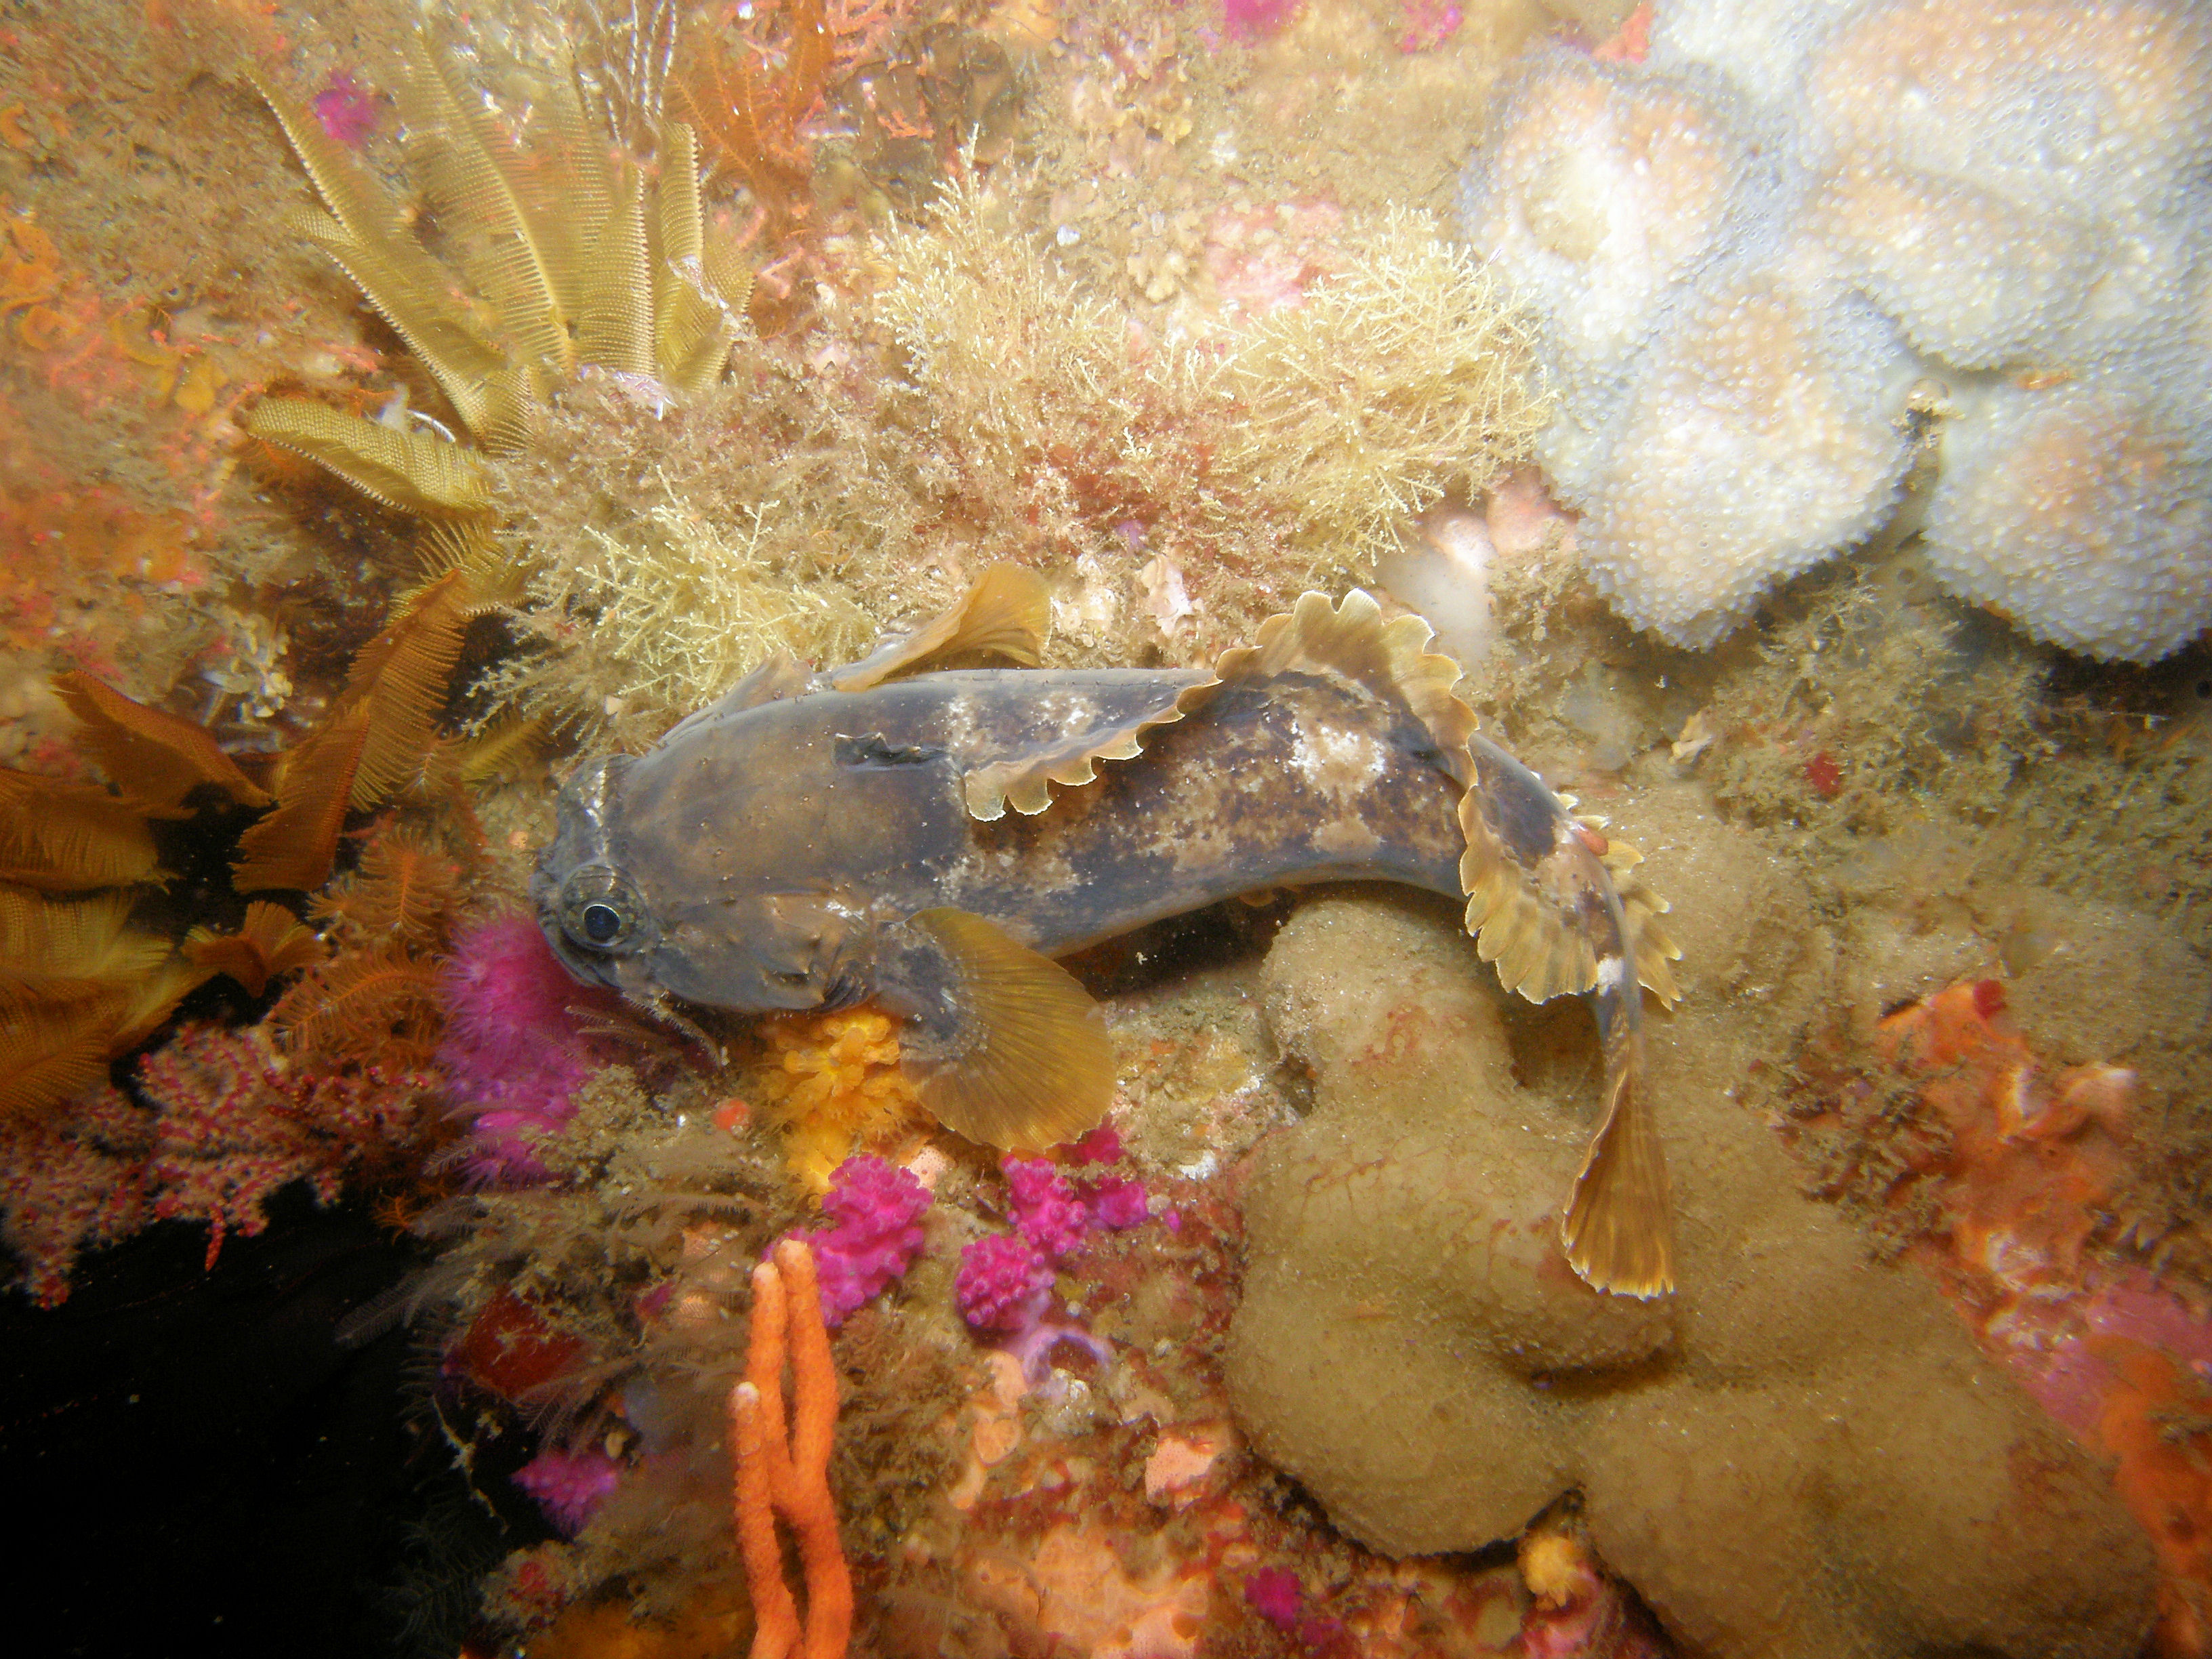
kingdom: Animalia
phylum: Chordata
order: Batrachoidiformes
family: Batrachoididae
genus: Austrobatrachus
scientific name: Austrobatrachus foedus
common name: Puzzled toadfish
